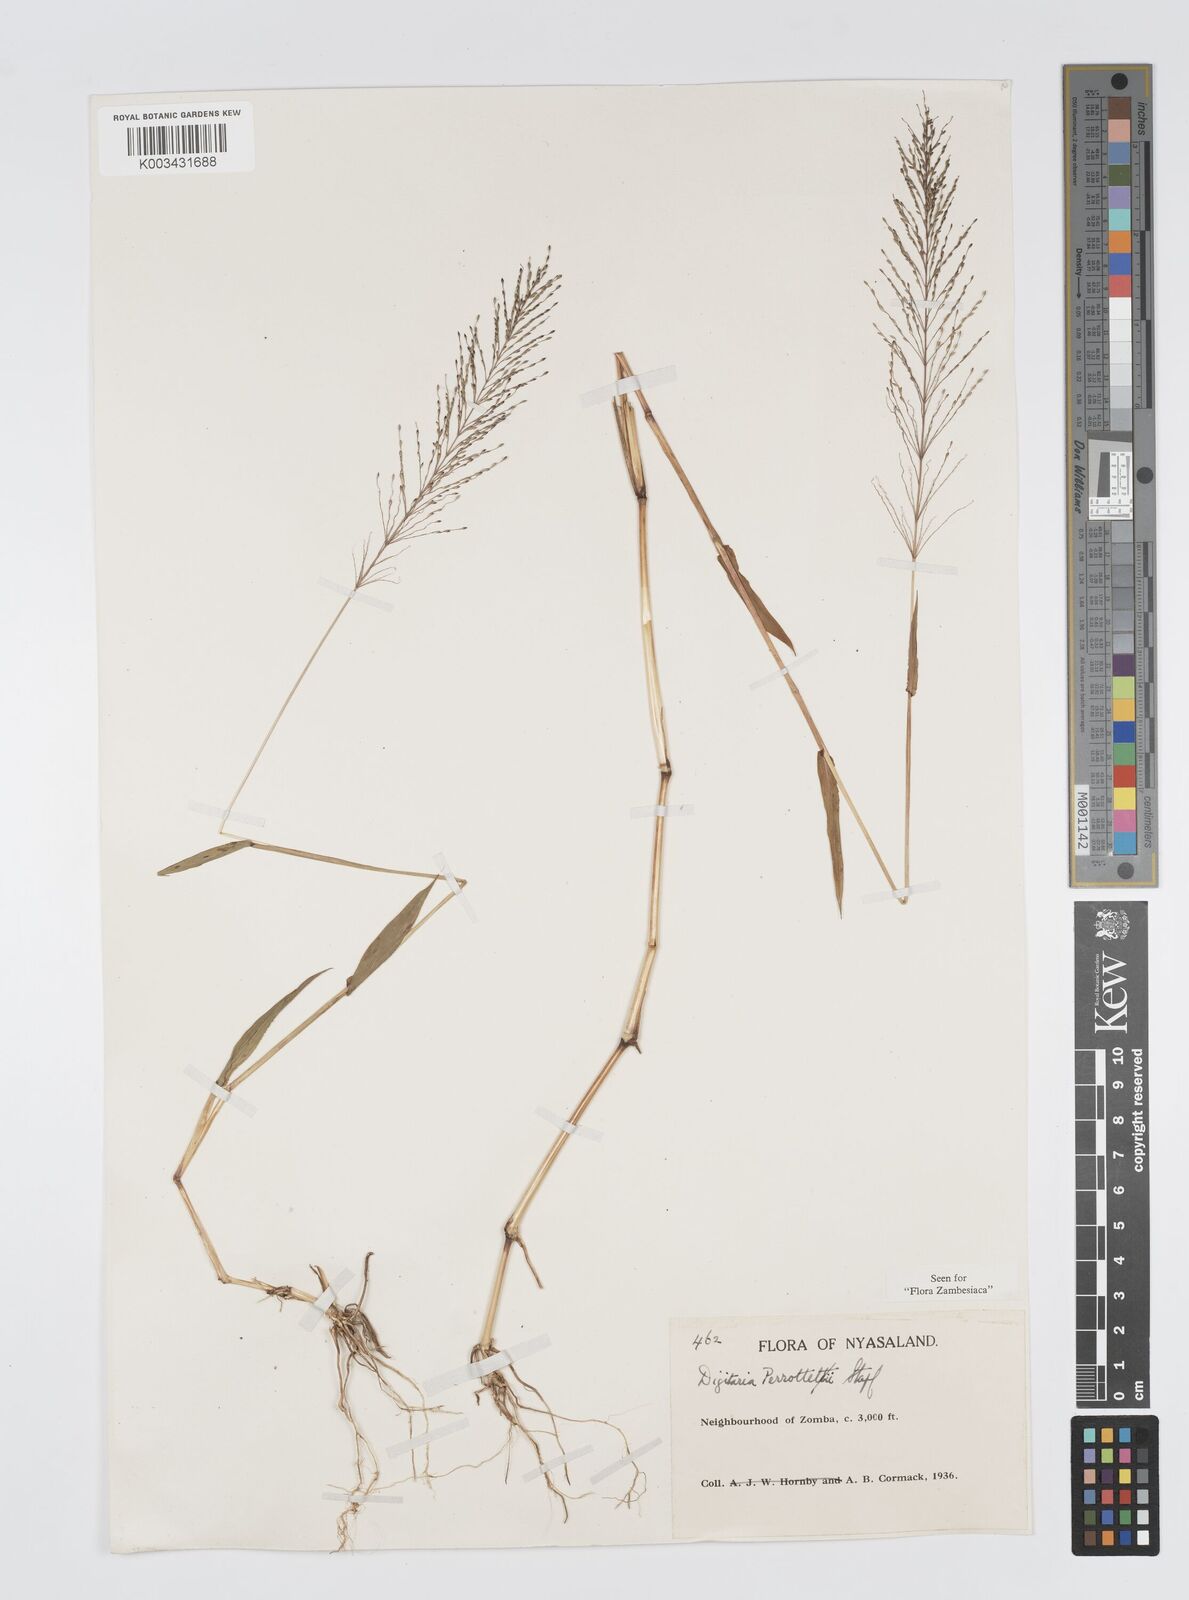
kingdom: Plantae
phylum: Tracheophyta
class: Liliopsida
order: Poales
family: Poaceae
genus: Digitaria
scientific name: Digitaria perrottetii
